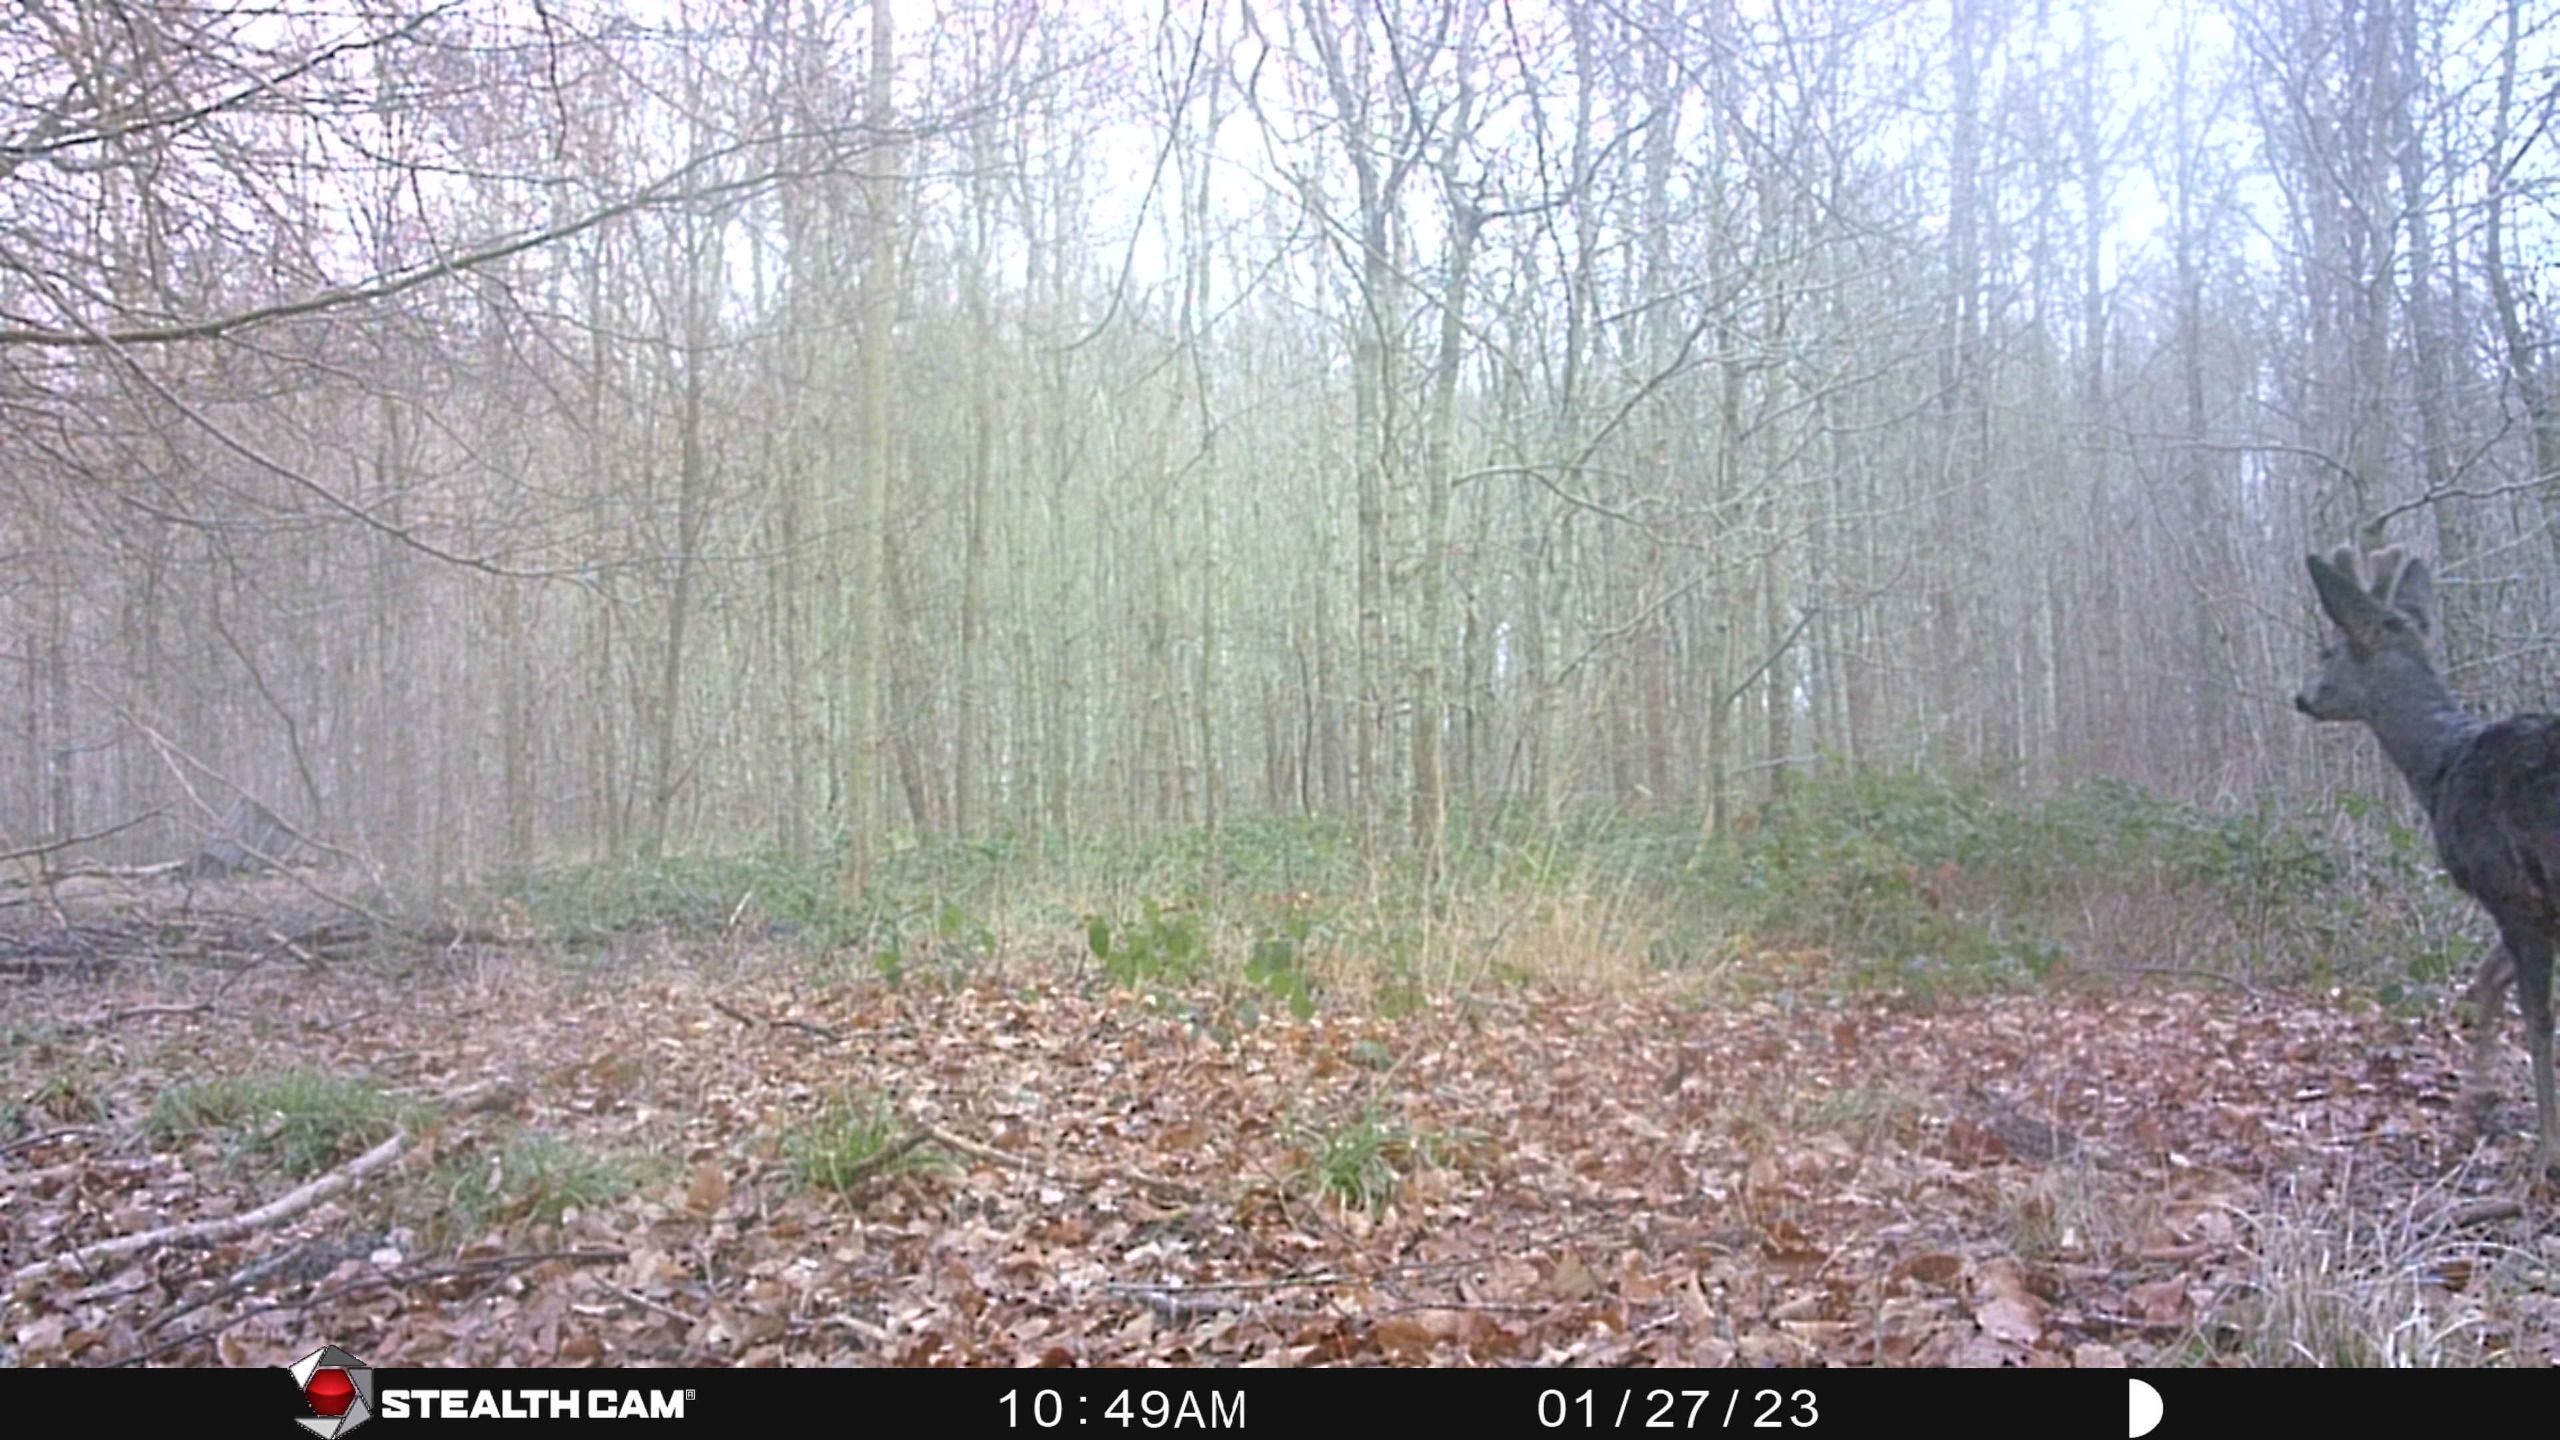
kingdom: Animalia
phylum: Chordata
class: Mammalia
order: Artiodactyla
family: Cervidae
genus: Capreolus
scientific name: Capreolus capreolus
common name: Rådyr
